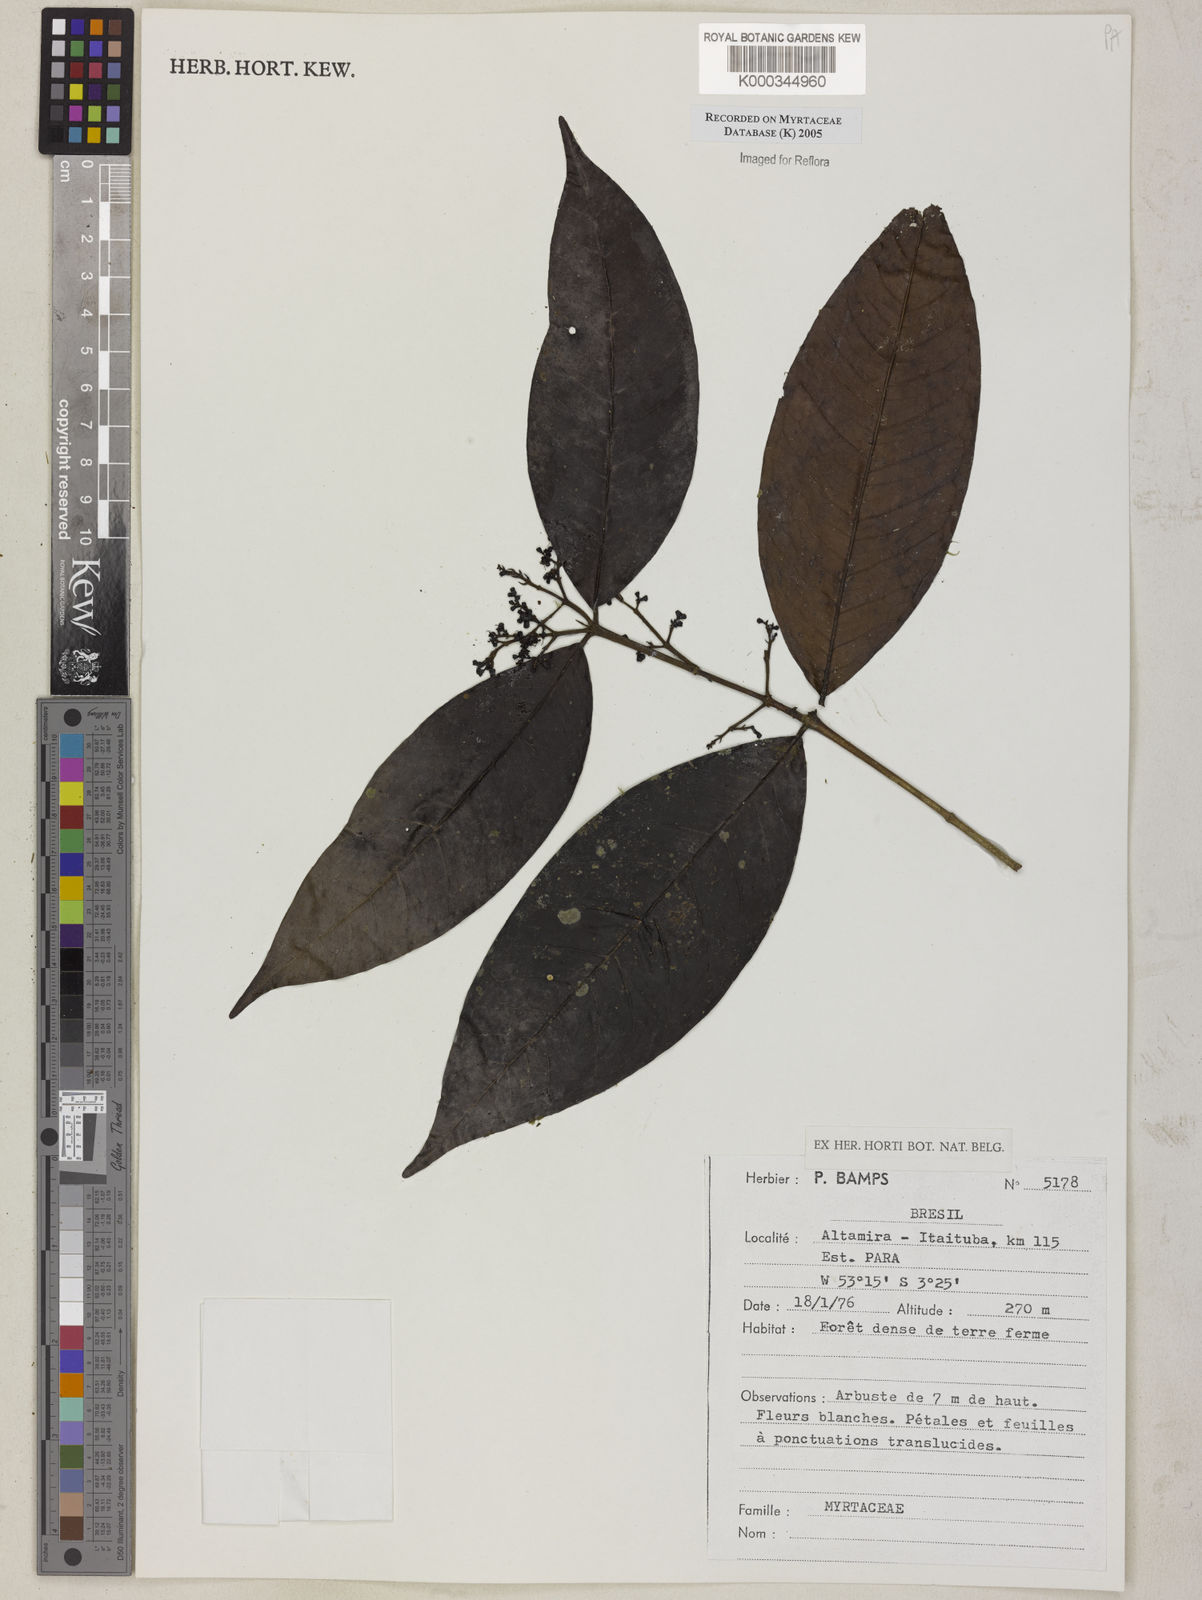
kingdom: Plantae
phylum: Tracheophyta
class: Magnoliopsida
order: Myrtales
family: Myrtaceae
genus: Myrcia
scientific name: Myrcia
